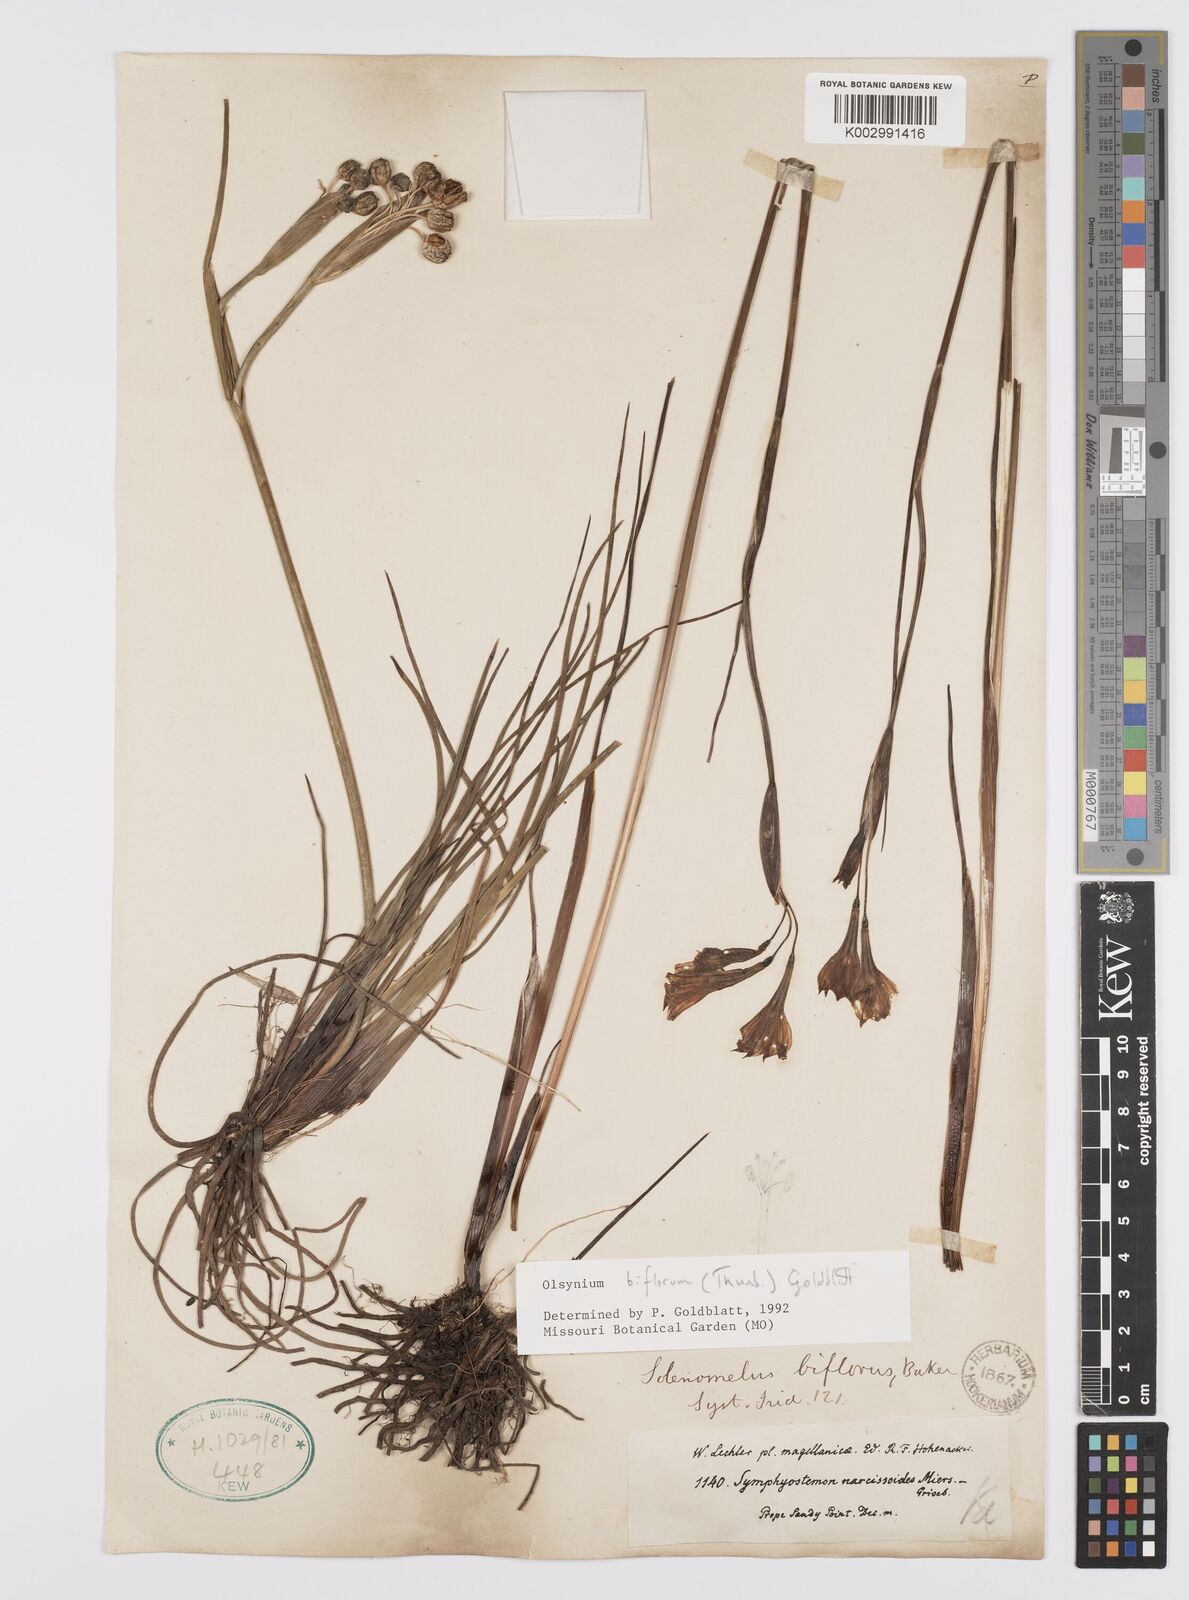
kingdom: Plantae
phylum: Tracheophyta
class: Liliopsida
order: Asparagales
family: Iridaceae
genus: Olsynium
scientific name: Olsynium biflorum
